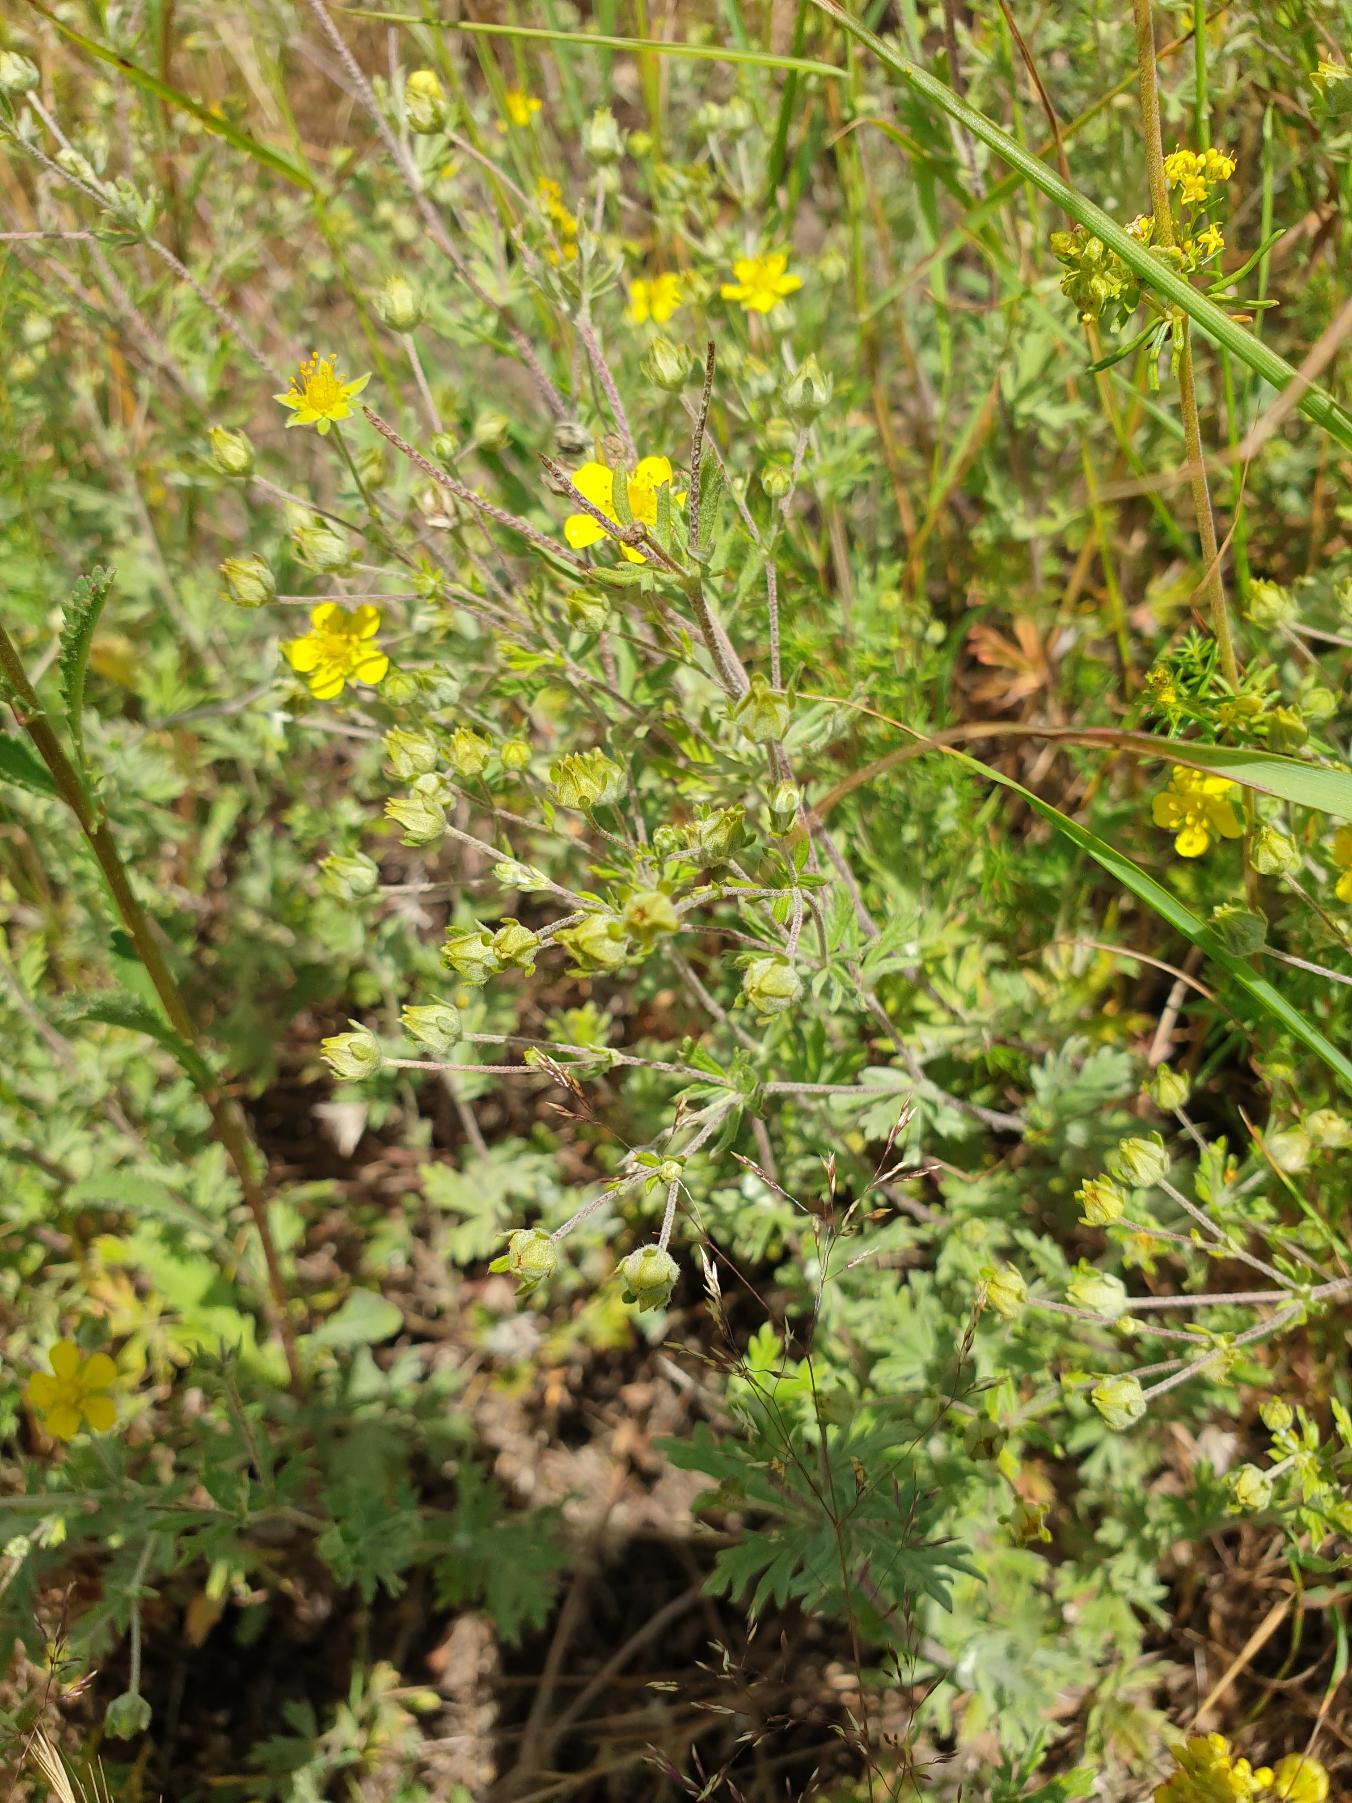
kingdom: Plantae
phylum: Tracheophyta
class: Magnoliopsida
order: Rosales
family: Rosaceae
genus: Potentilla
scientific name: Potentilla argentea
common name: Sølv-potentil
